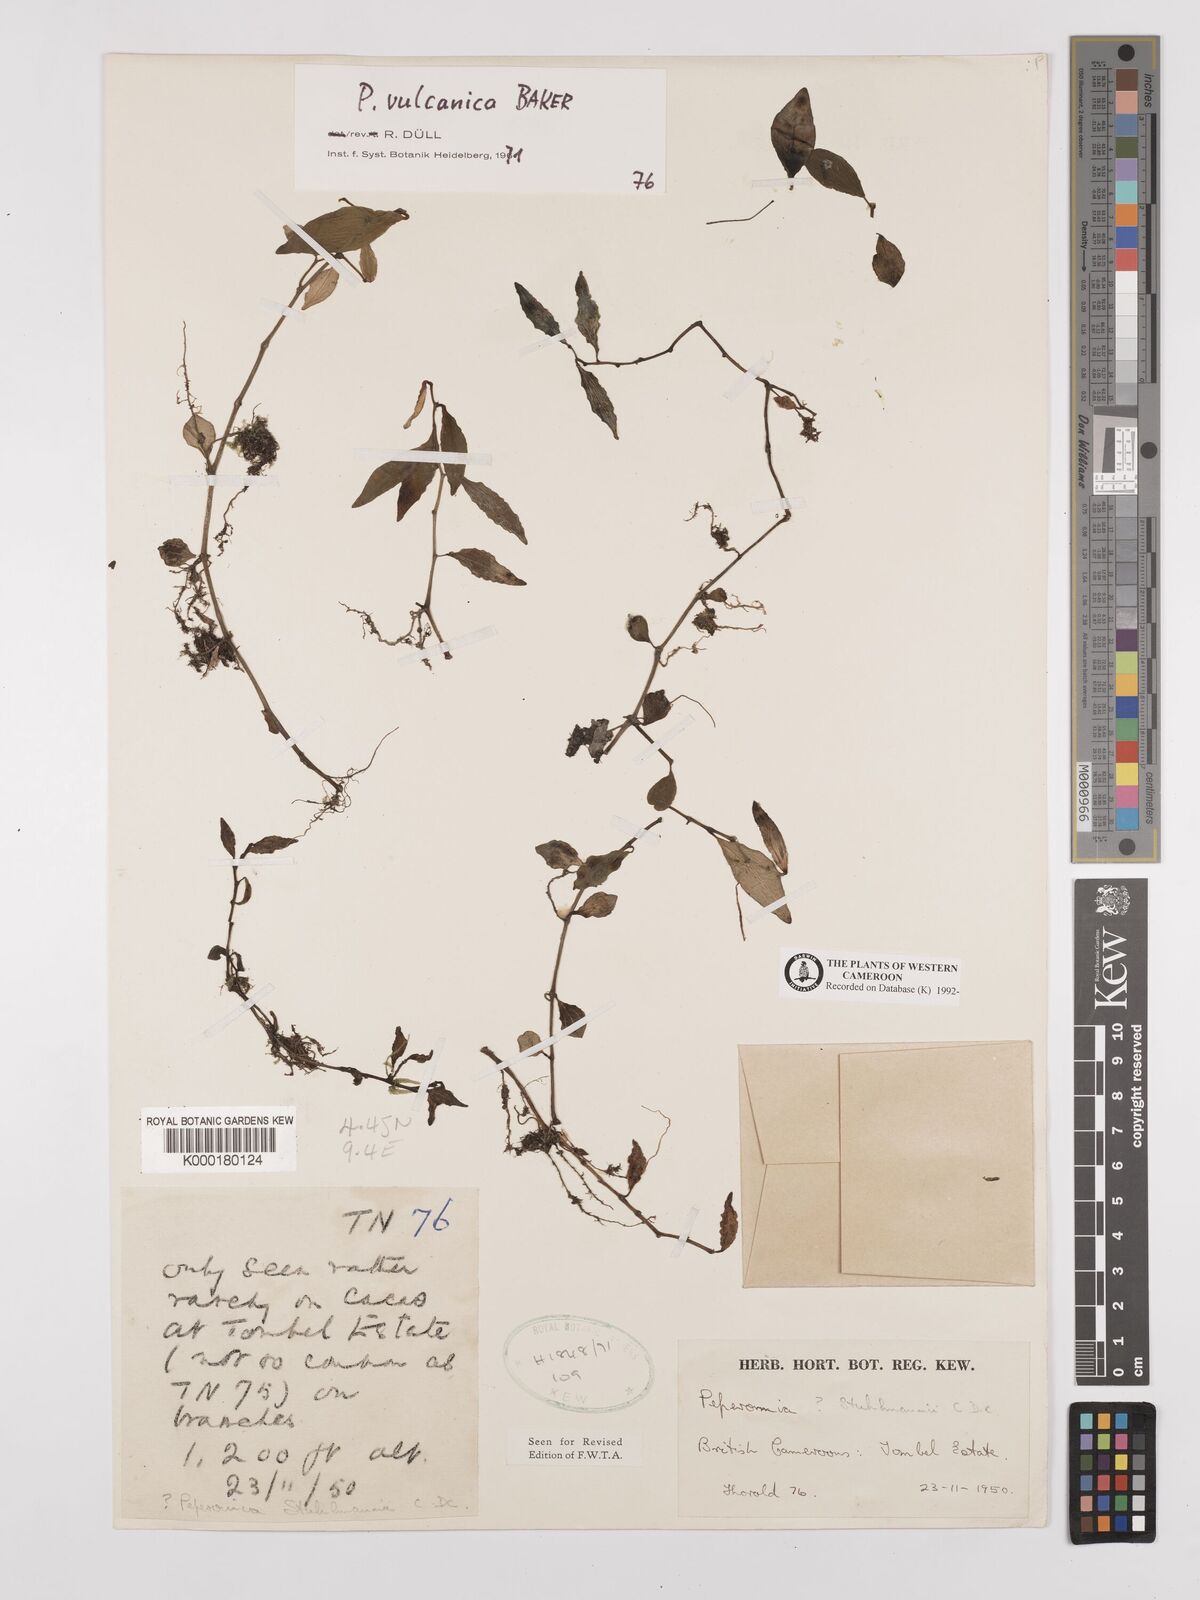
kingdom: Plantae
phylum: Tracheophyta
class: Magnoliopsida
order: Piperales
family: Piperaceae
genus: Peperomia
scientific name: Peperomia vulcanica
